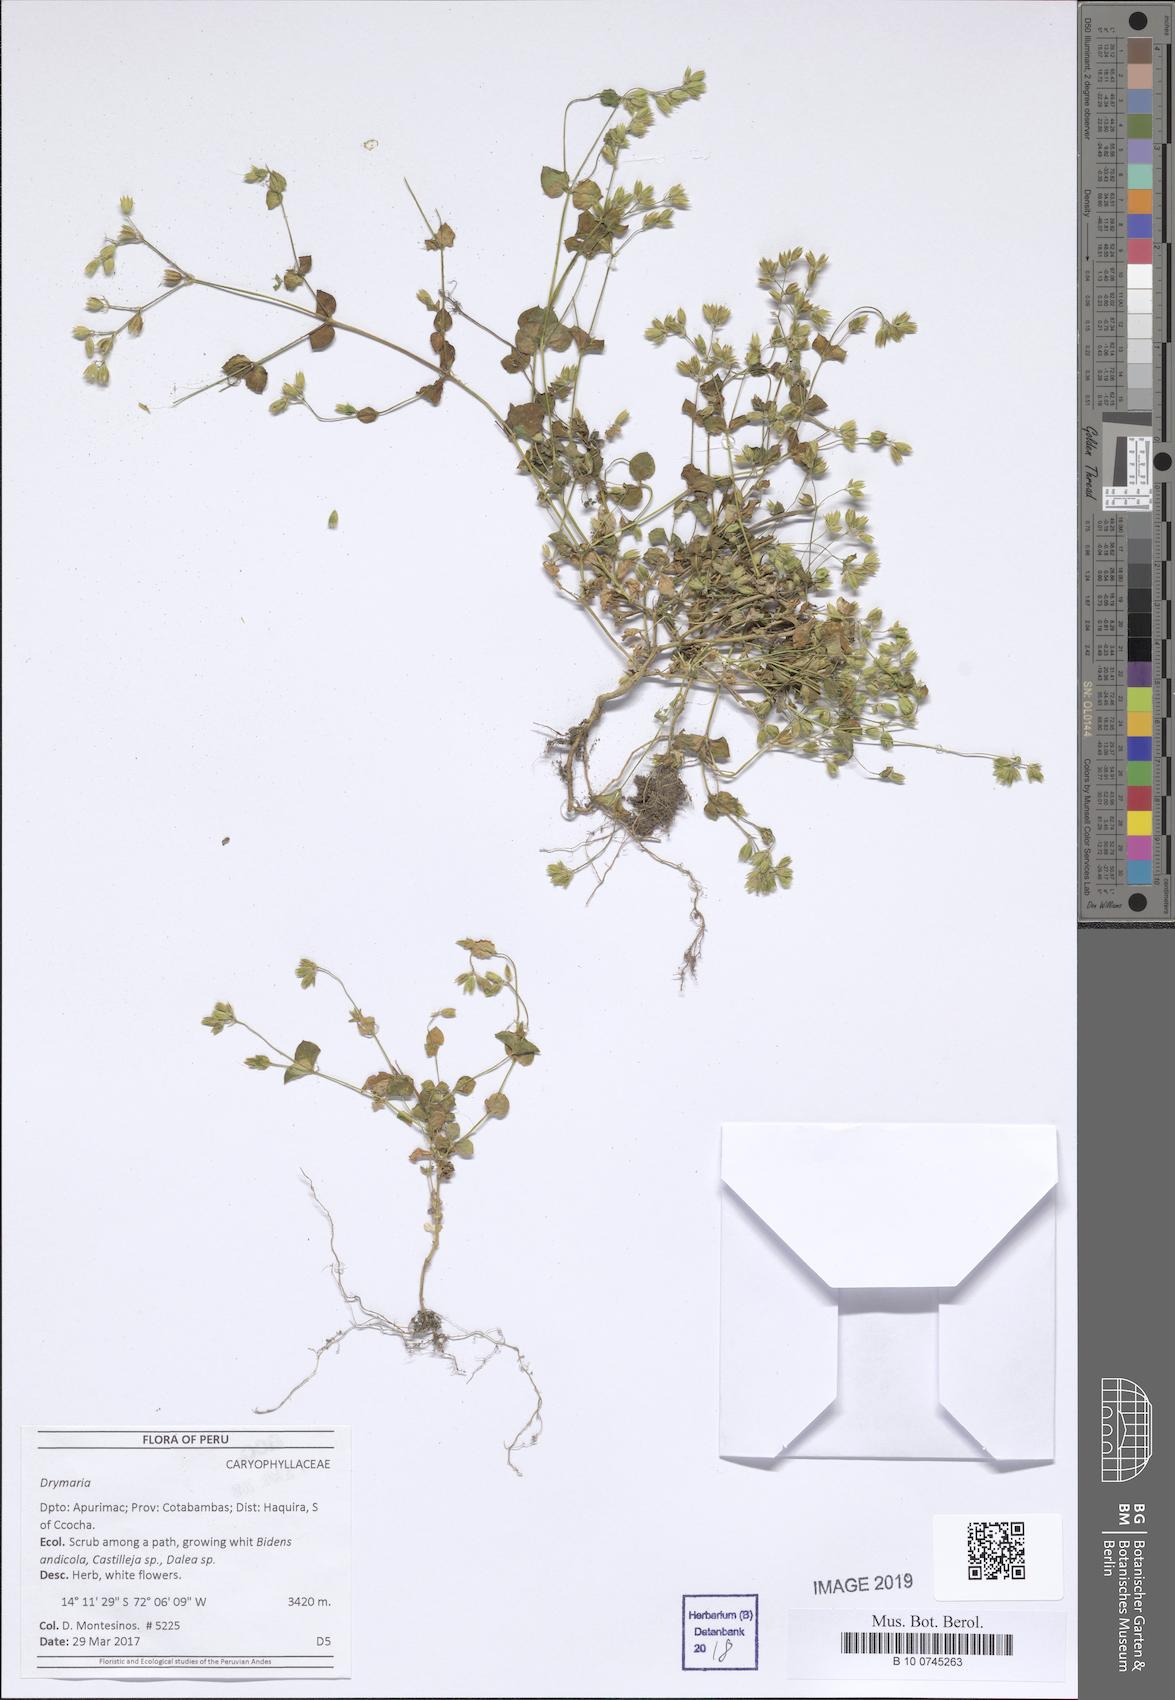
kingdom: Plantae
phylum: Tracheophyta
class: Magnoliopsida
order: Caryophyllales
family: Caryophyllaceae
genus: Drymaria
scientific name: Drymaria
